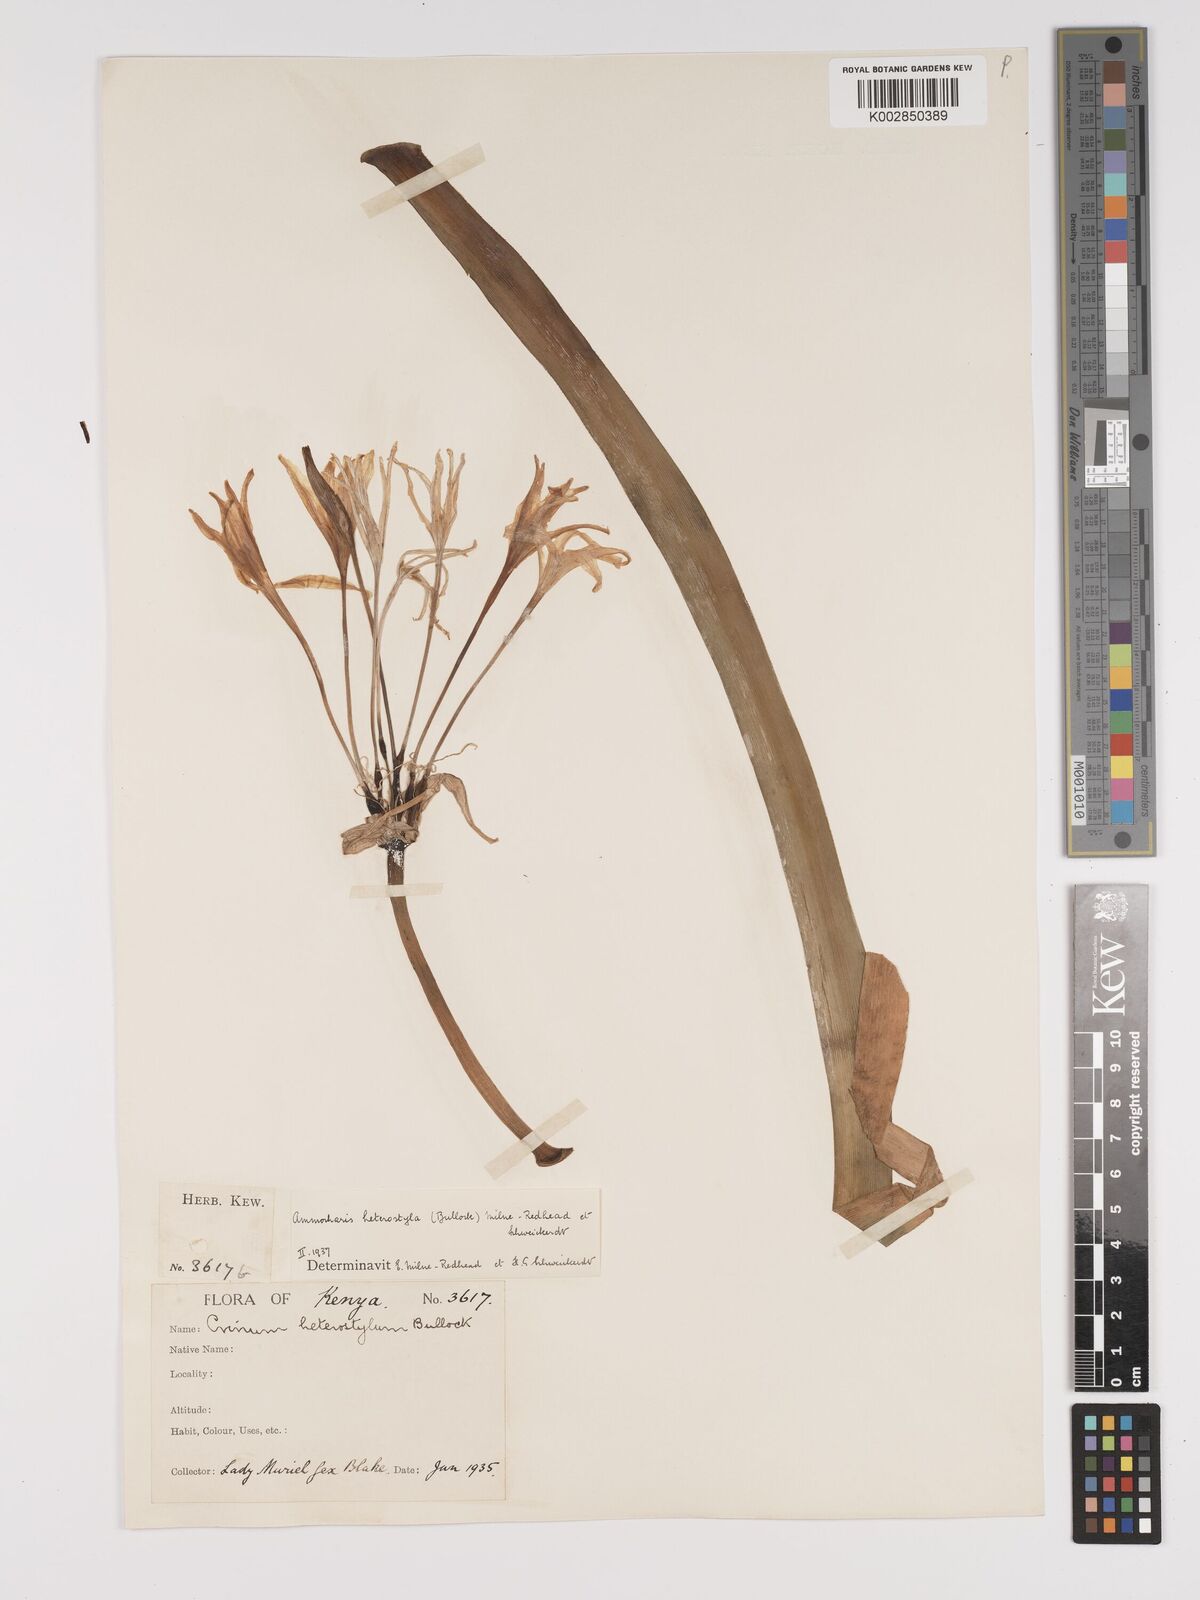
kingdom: Plantae
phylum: Tracheophyta
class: Liliopsida
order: Asparagales
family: Amaryllidaceae
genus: Ammocharis
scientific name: Ammocharis angolensis
